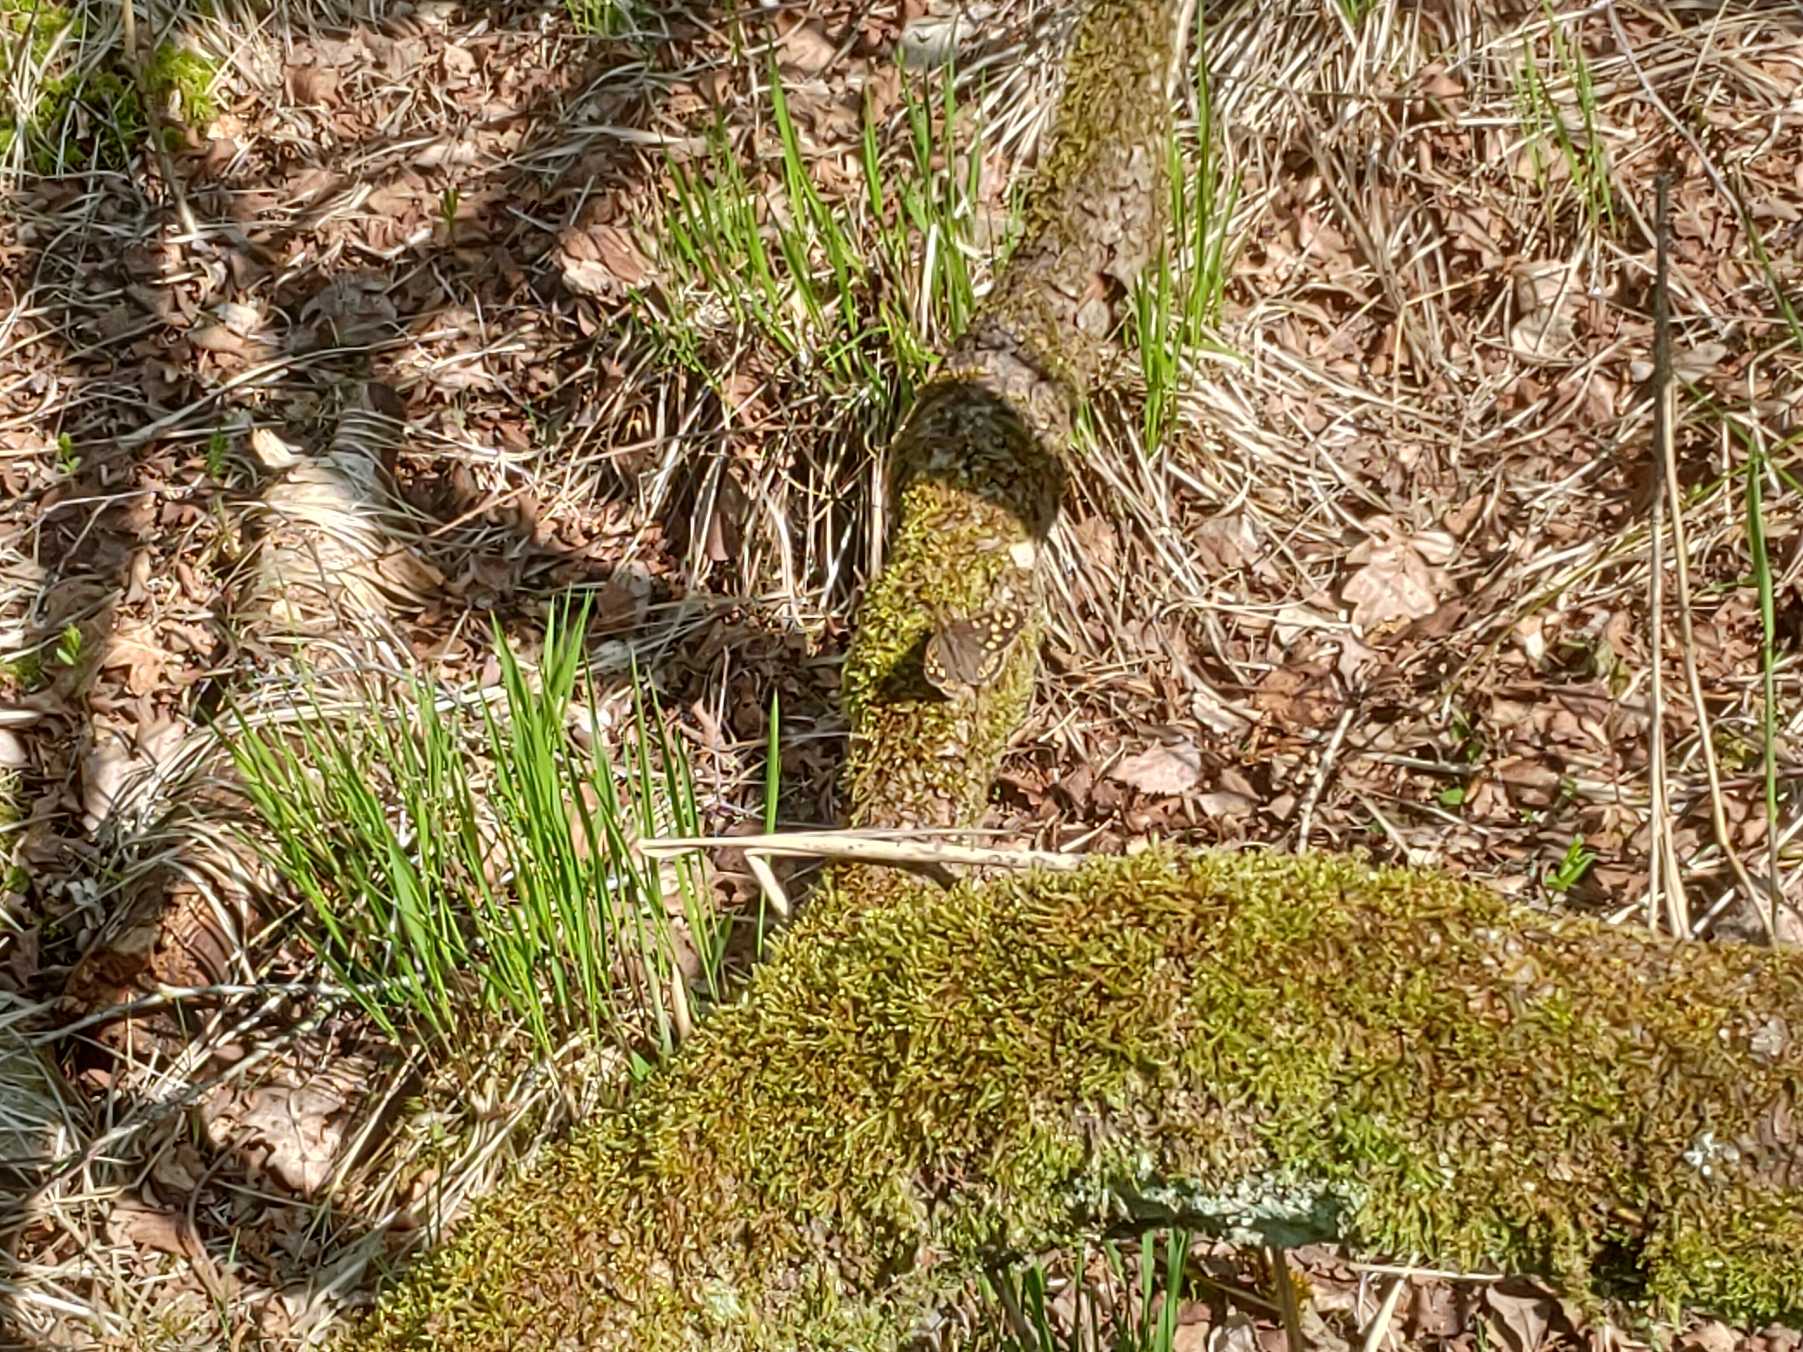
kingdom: Animalia
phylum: Arthropoda
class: Insecta
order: Lepidoptera
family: Nymphalidae
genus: Pararge
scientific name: Pararge aegeria
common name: Skovrandøje
